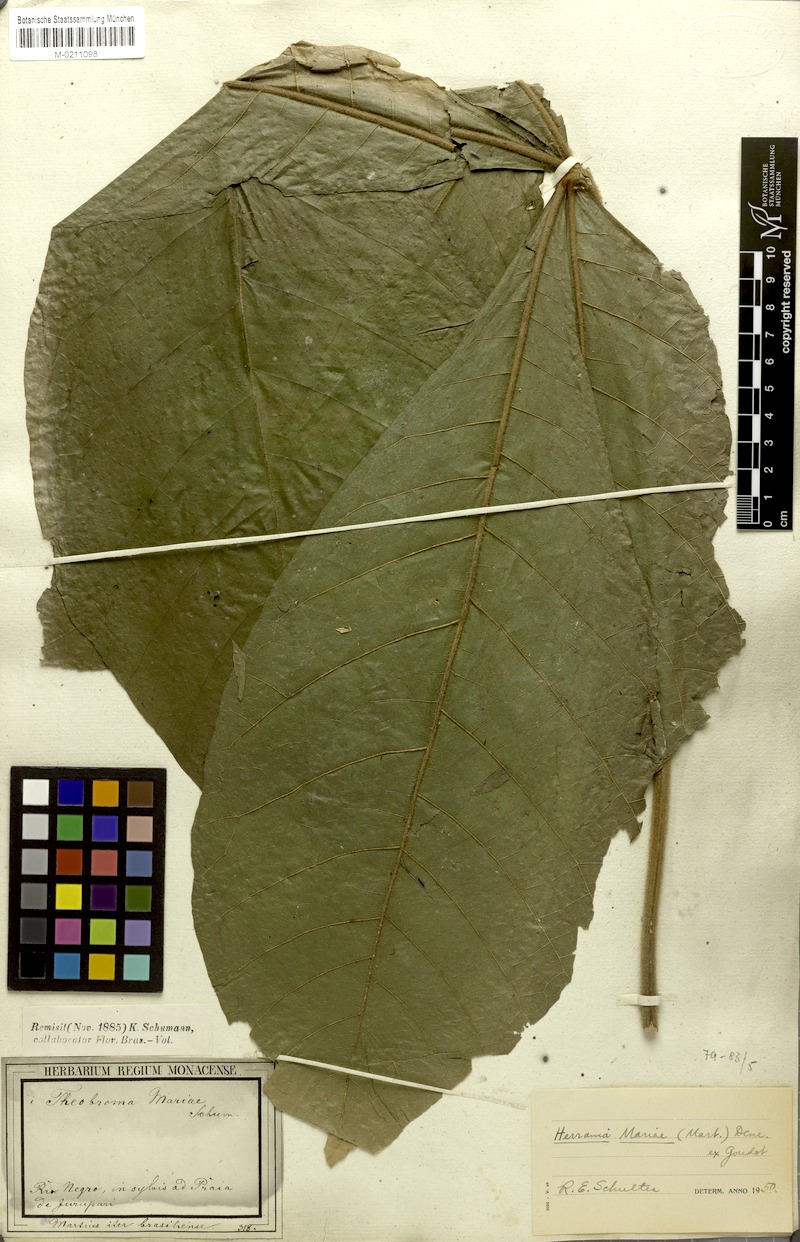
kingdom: Plantae
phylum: Tracheophyta
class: Magnoliopsida
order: Malvales
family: Malvaceae
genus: Abroma
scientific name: Abroma augustum
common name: Devil's-cotton
